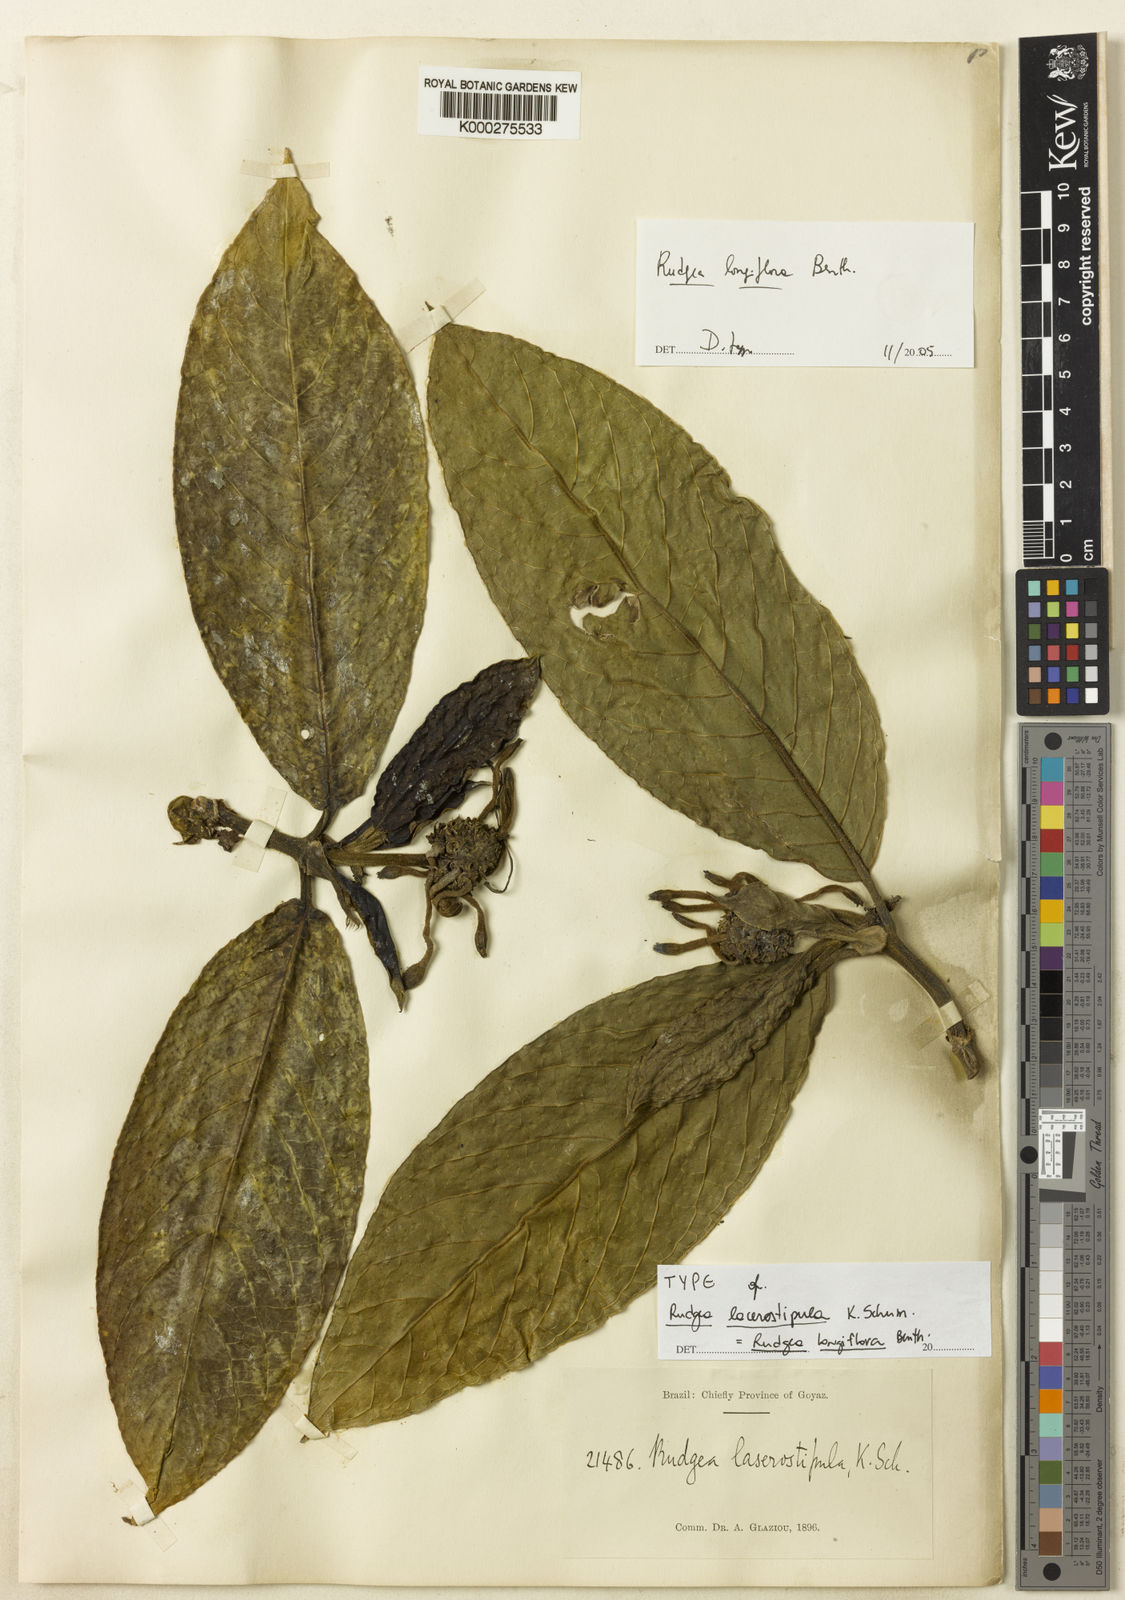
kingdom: Plantae
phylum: Tracheophyta
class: Magnoliopsida
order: Gentianales
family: Rubiaceae
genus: Rudgea
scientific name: Rudgea longiflora
